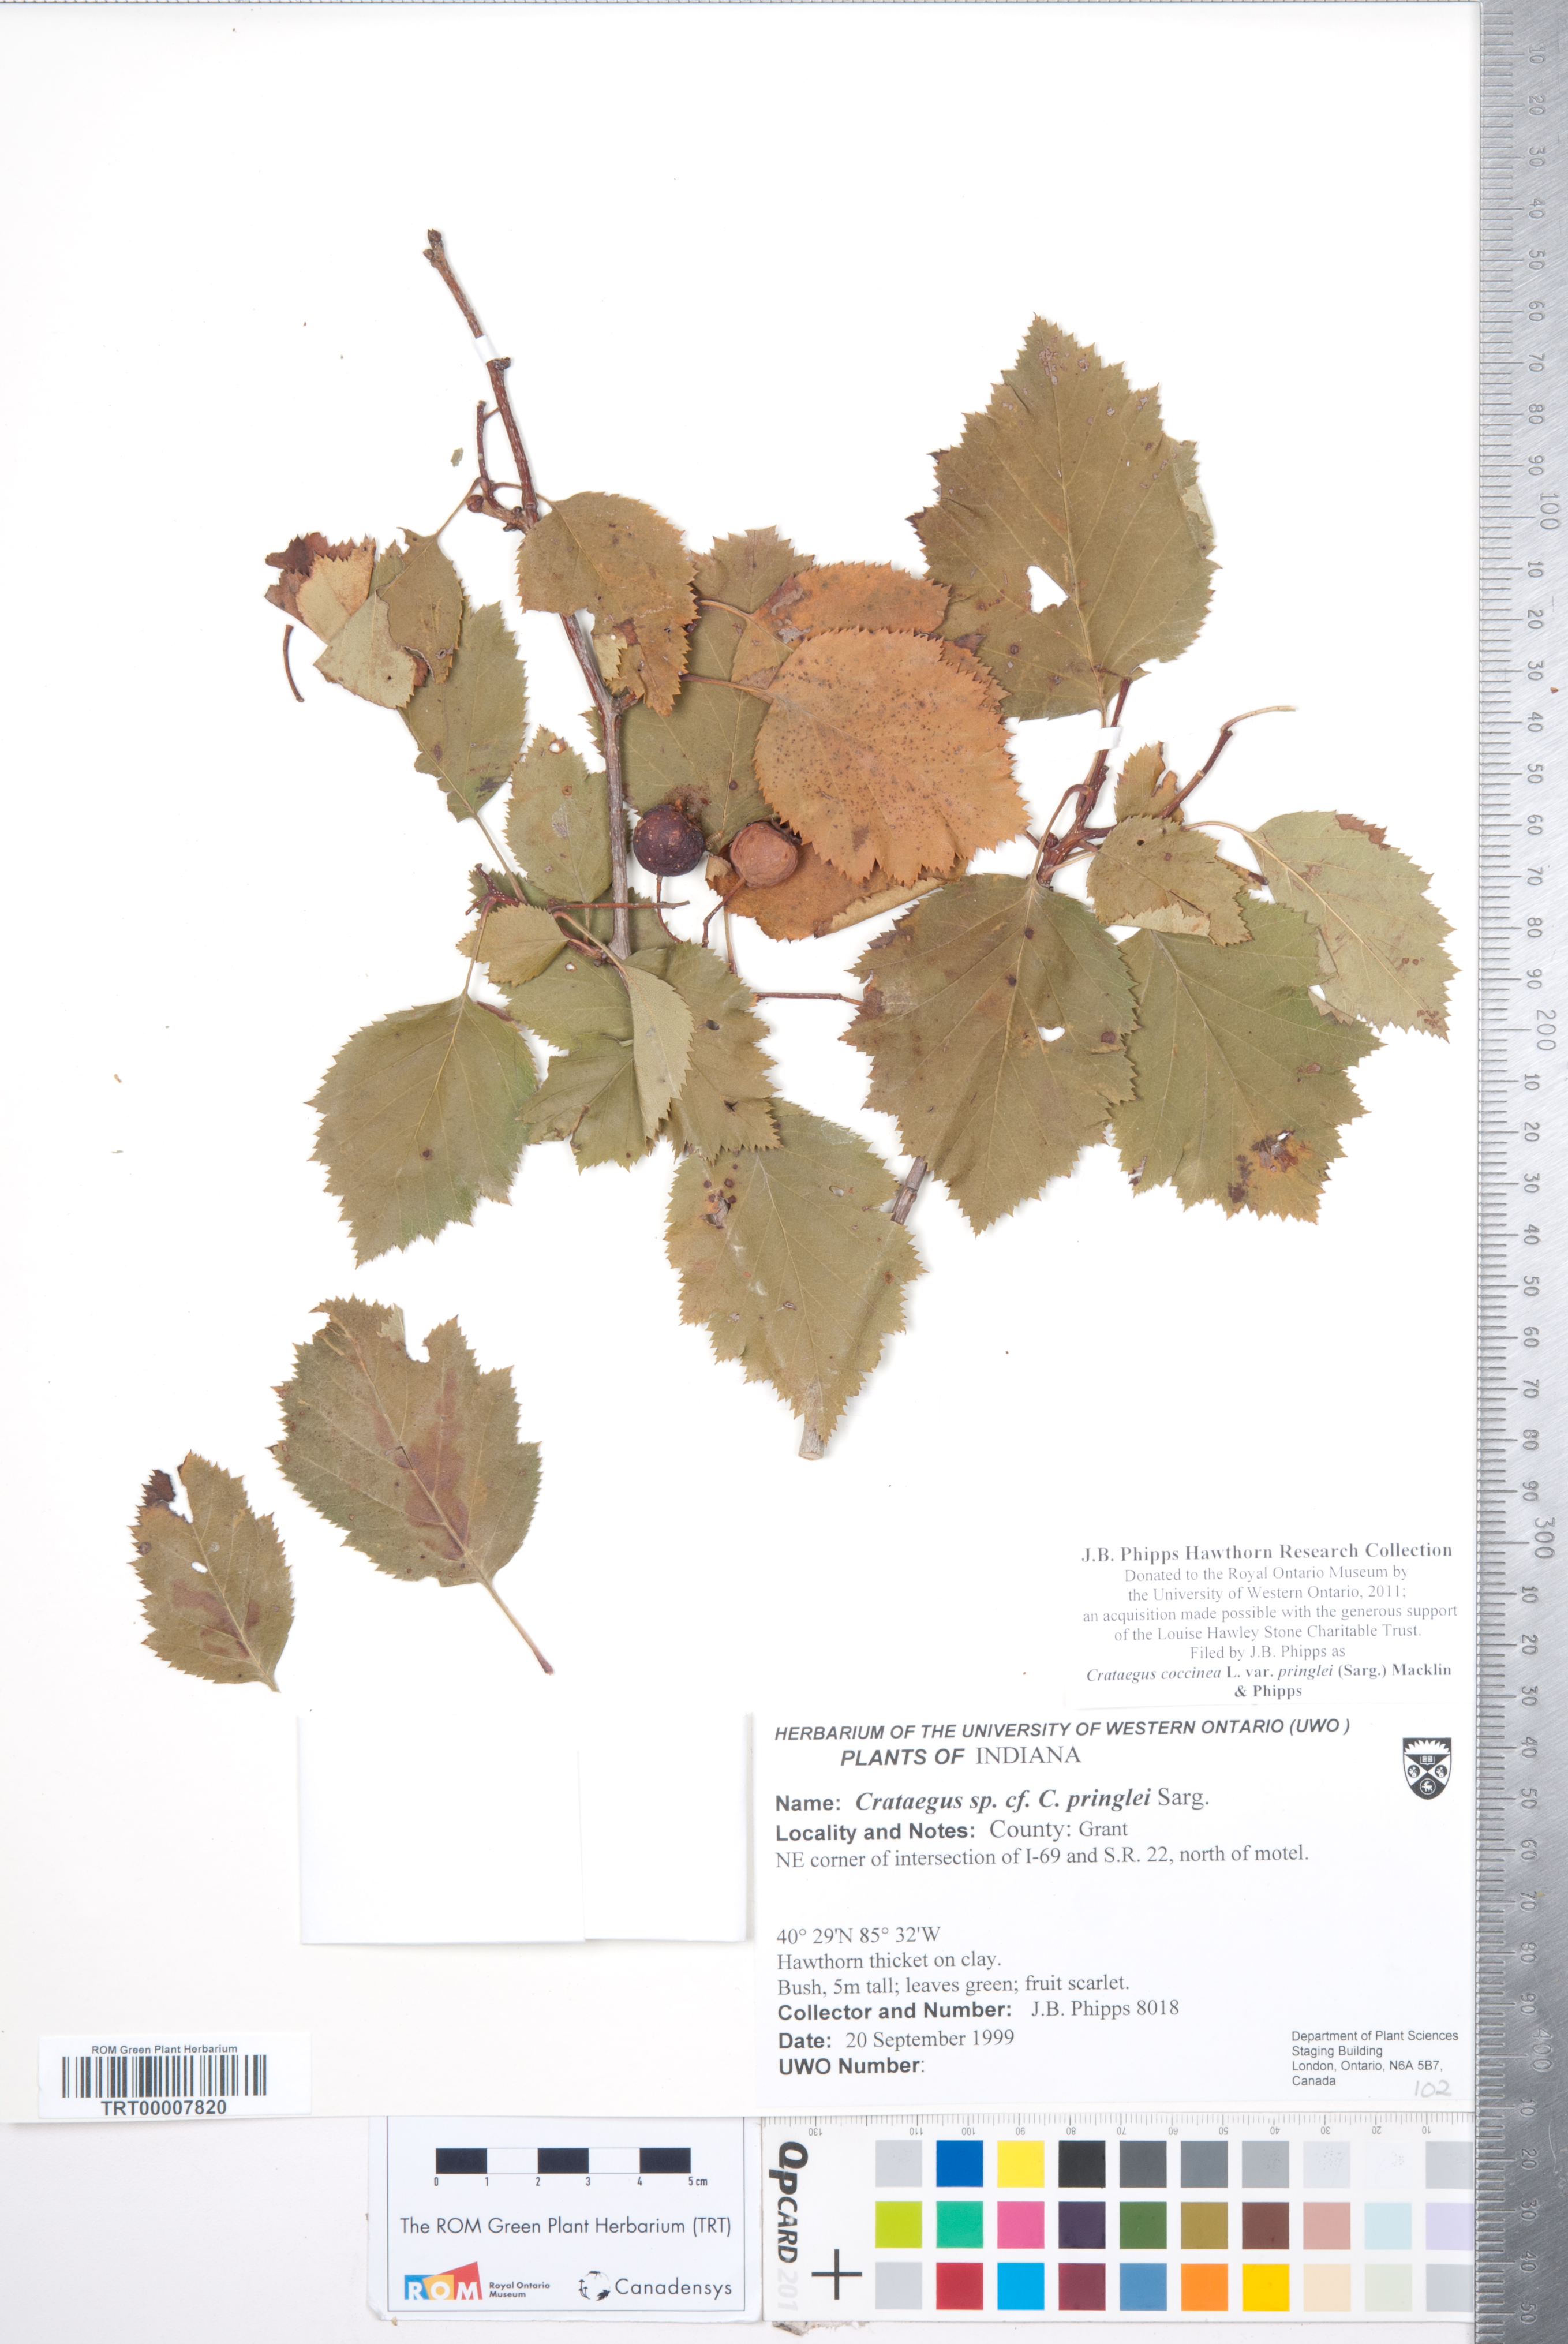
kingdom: Plantae
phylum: Tracheophyta
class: Magnoliopsida
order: Rosales
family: Rosaceae
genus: Crataegus
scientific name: Crataegus coccinea
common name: Scarlet hawthorn
